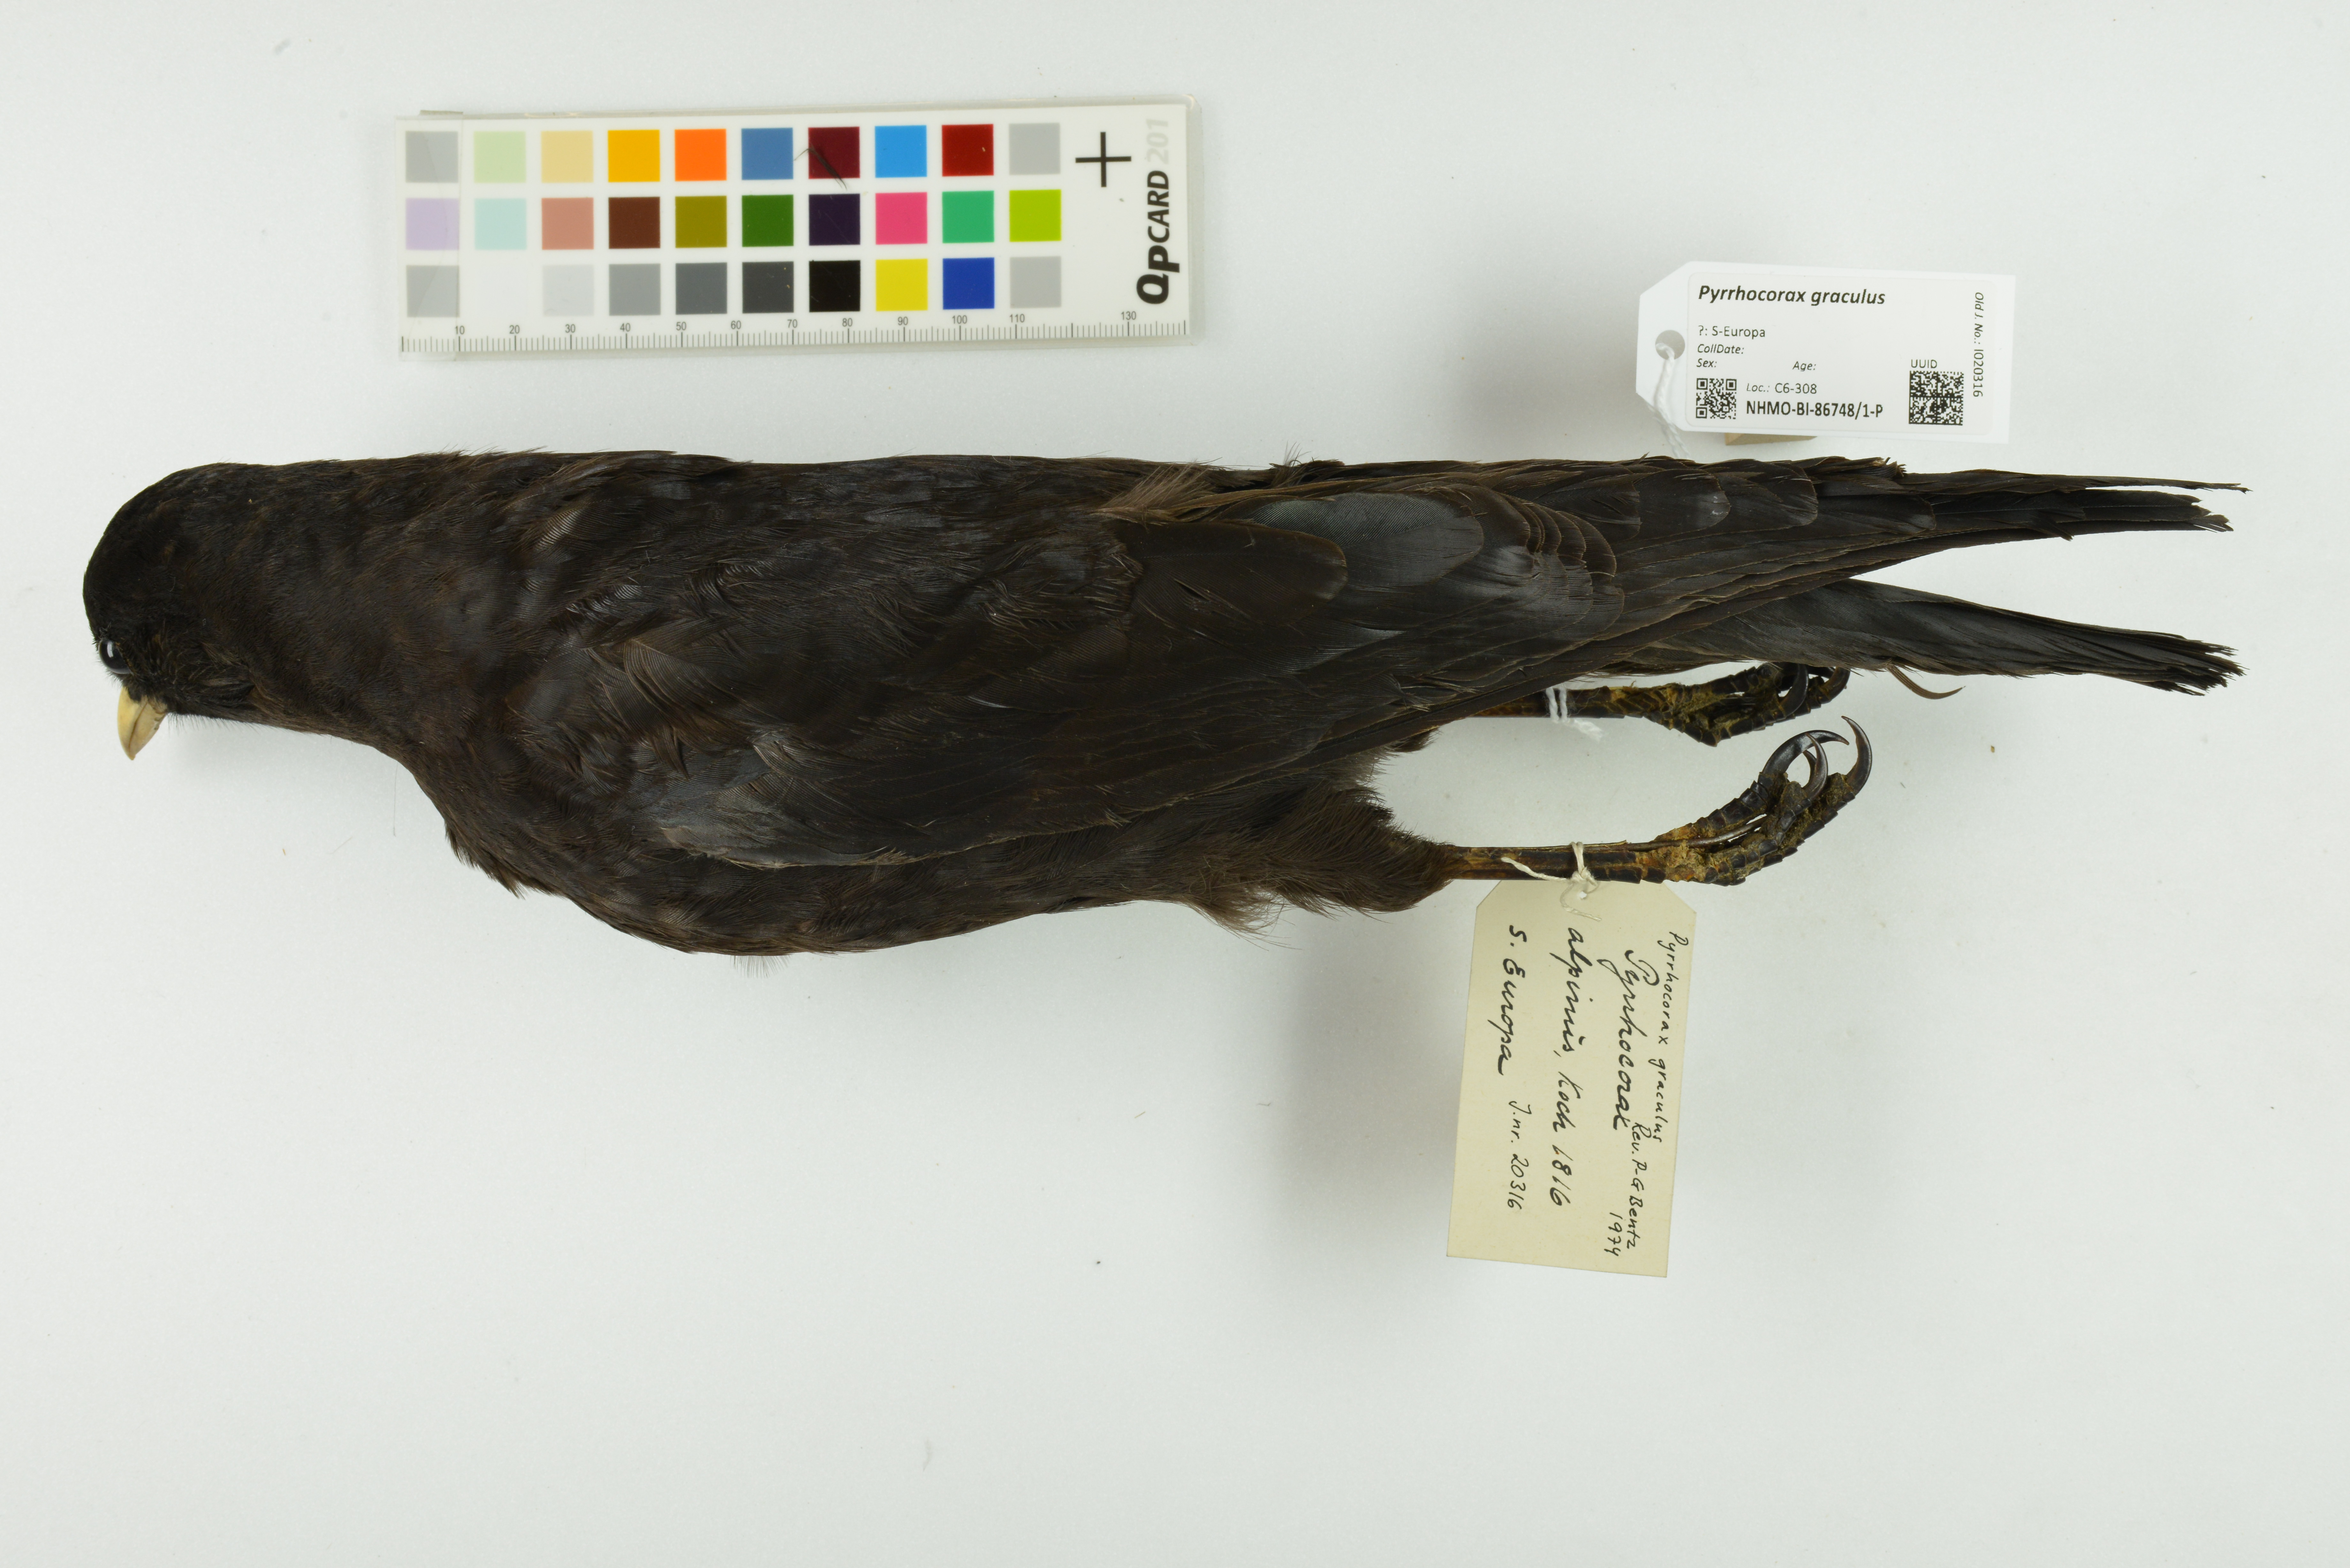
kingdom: Animalia
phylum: Chordata
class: Aves
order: Passeriformes
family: Corvidae
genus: Pyrrhocorax
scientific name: Pyrrhocorax graculus
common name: Alpine chough
